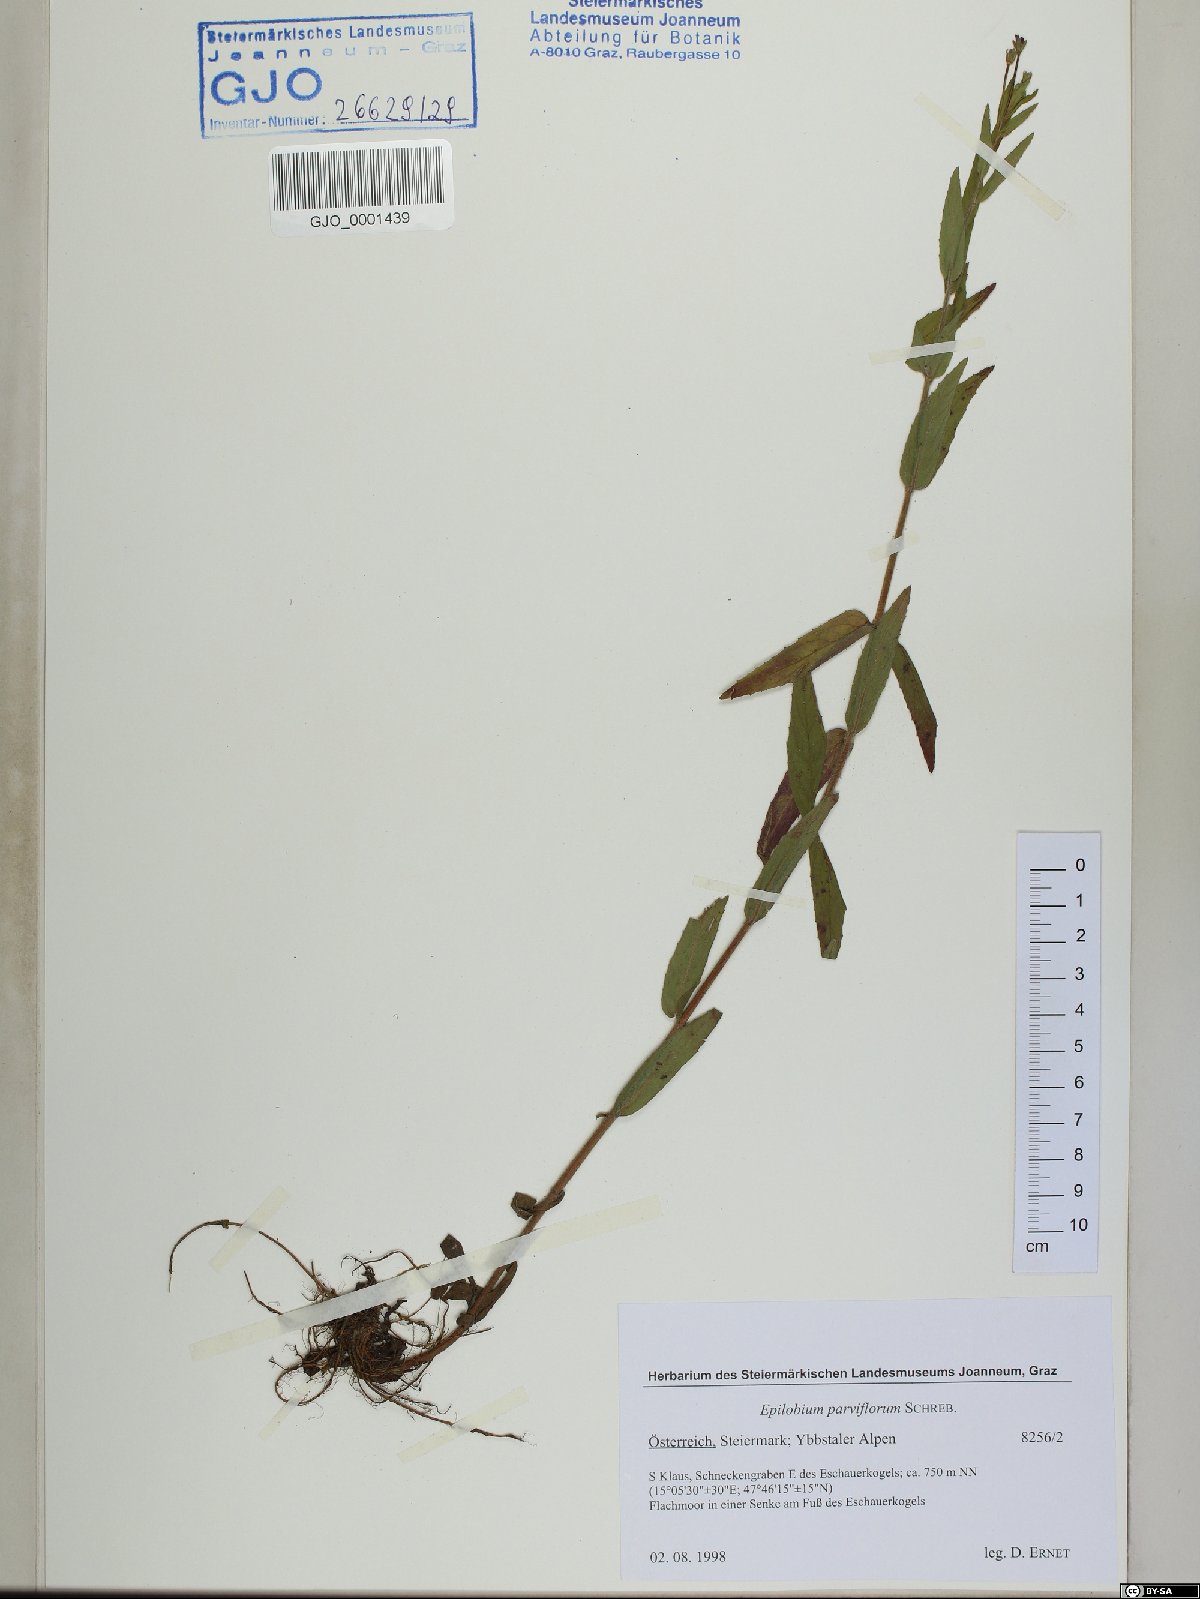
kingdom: Plantae
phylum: Tracheophyta
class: Magnoliopsida
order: Myrtales
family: Onagraceae
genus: Epilobium
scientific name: Epilobium parviflorum
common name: Hoary willowherb
